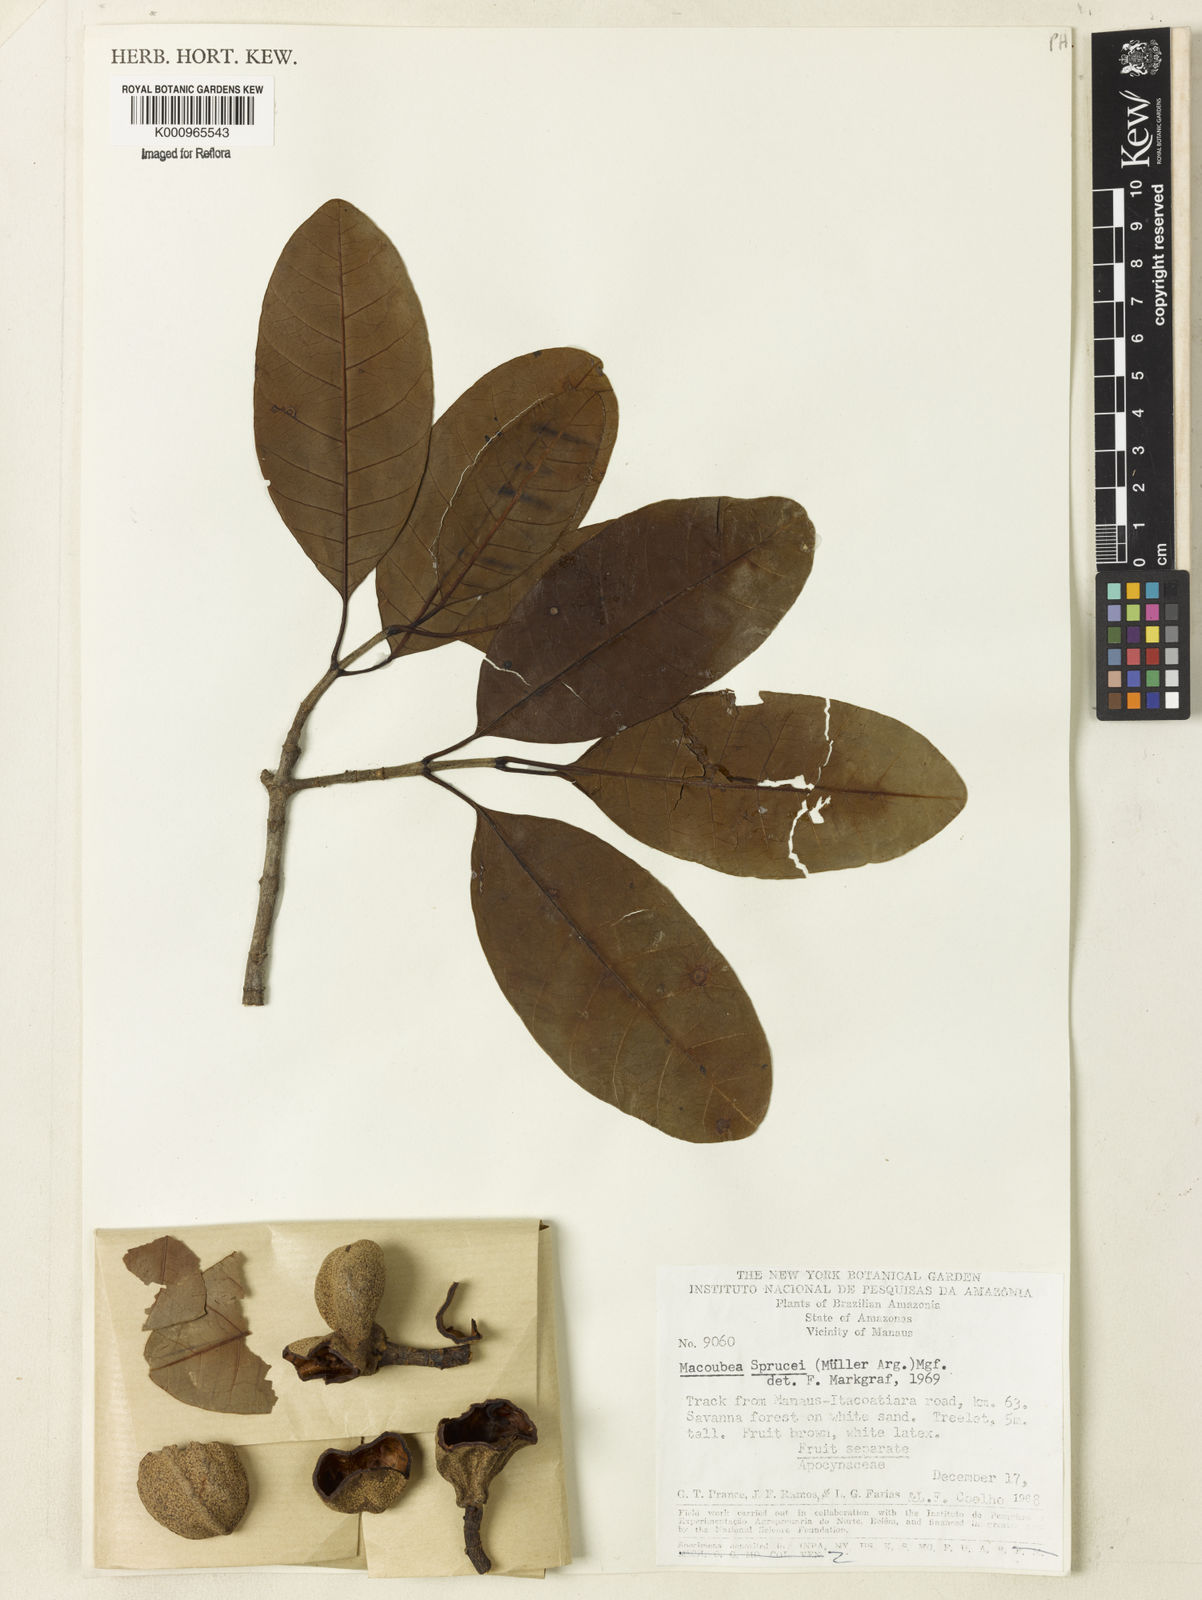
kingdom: Plantae
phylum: Tracheophyta
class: Magnoliopsida
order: Gentianales
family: Apocynaceae
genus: Macoubea
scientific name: Macoubea
